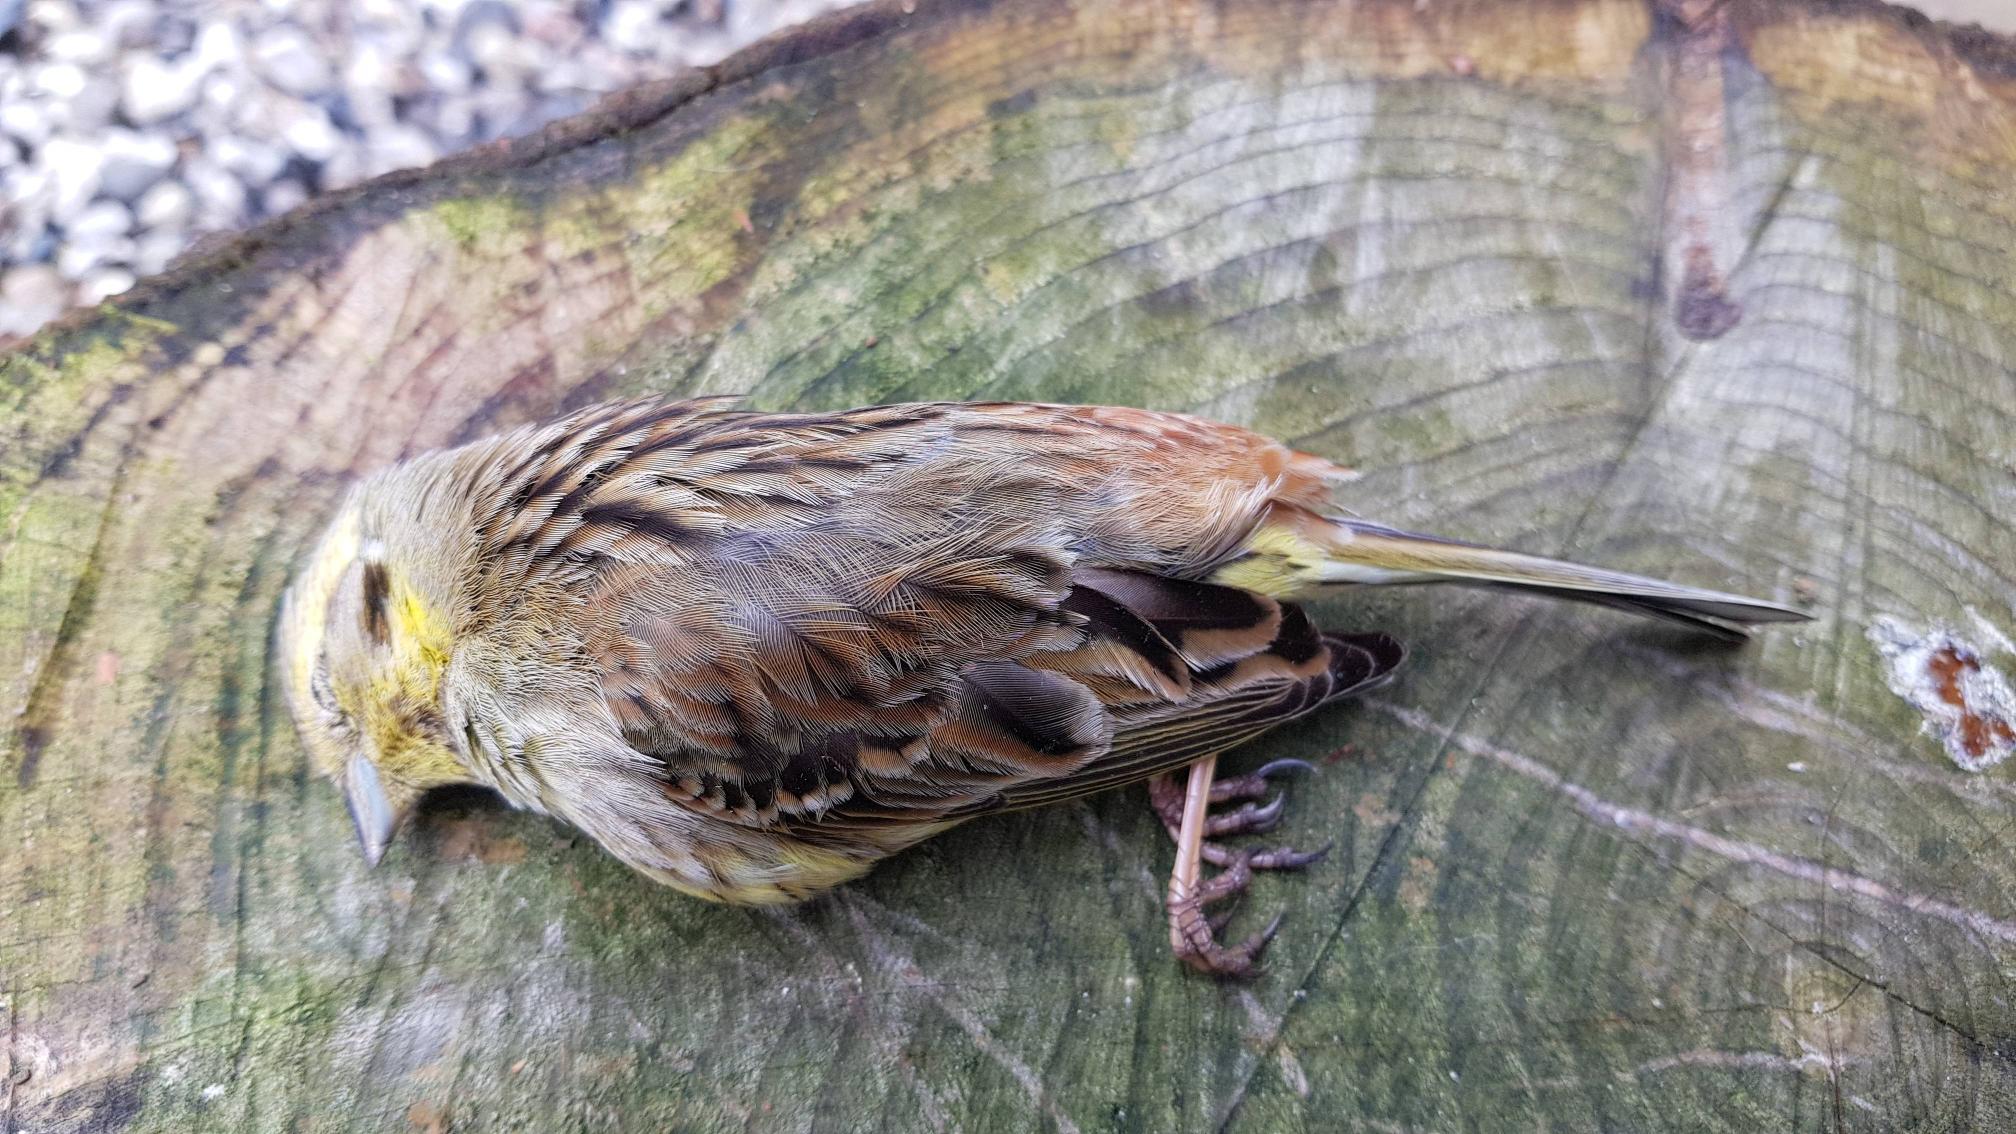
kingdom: Animalia
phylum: Chordata
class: Aves
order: Passeriformes
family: Emberizidae
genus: Emberiza
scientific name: Emberiza citrinella
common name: Gulspurv
